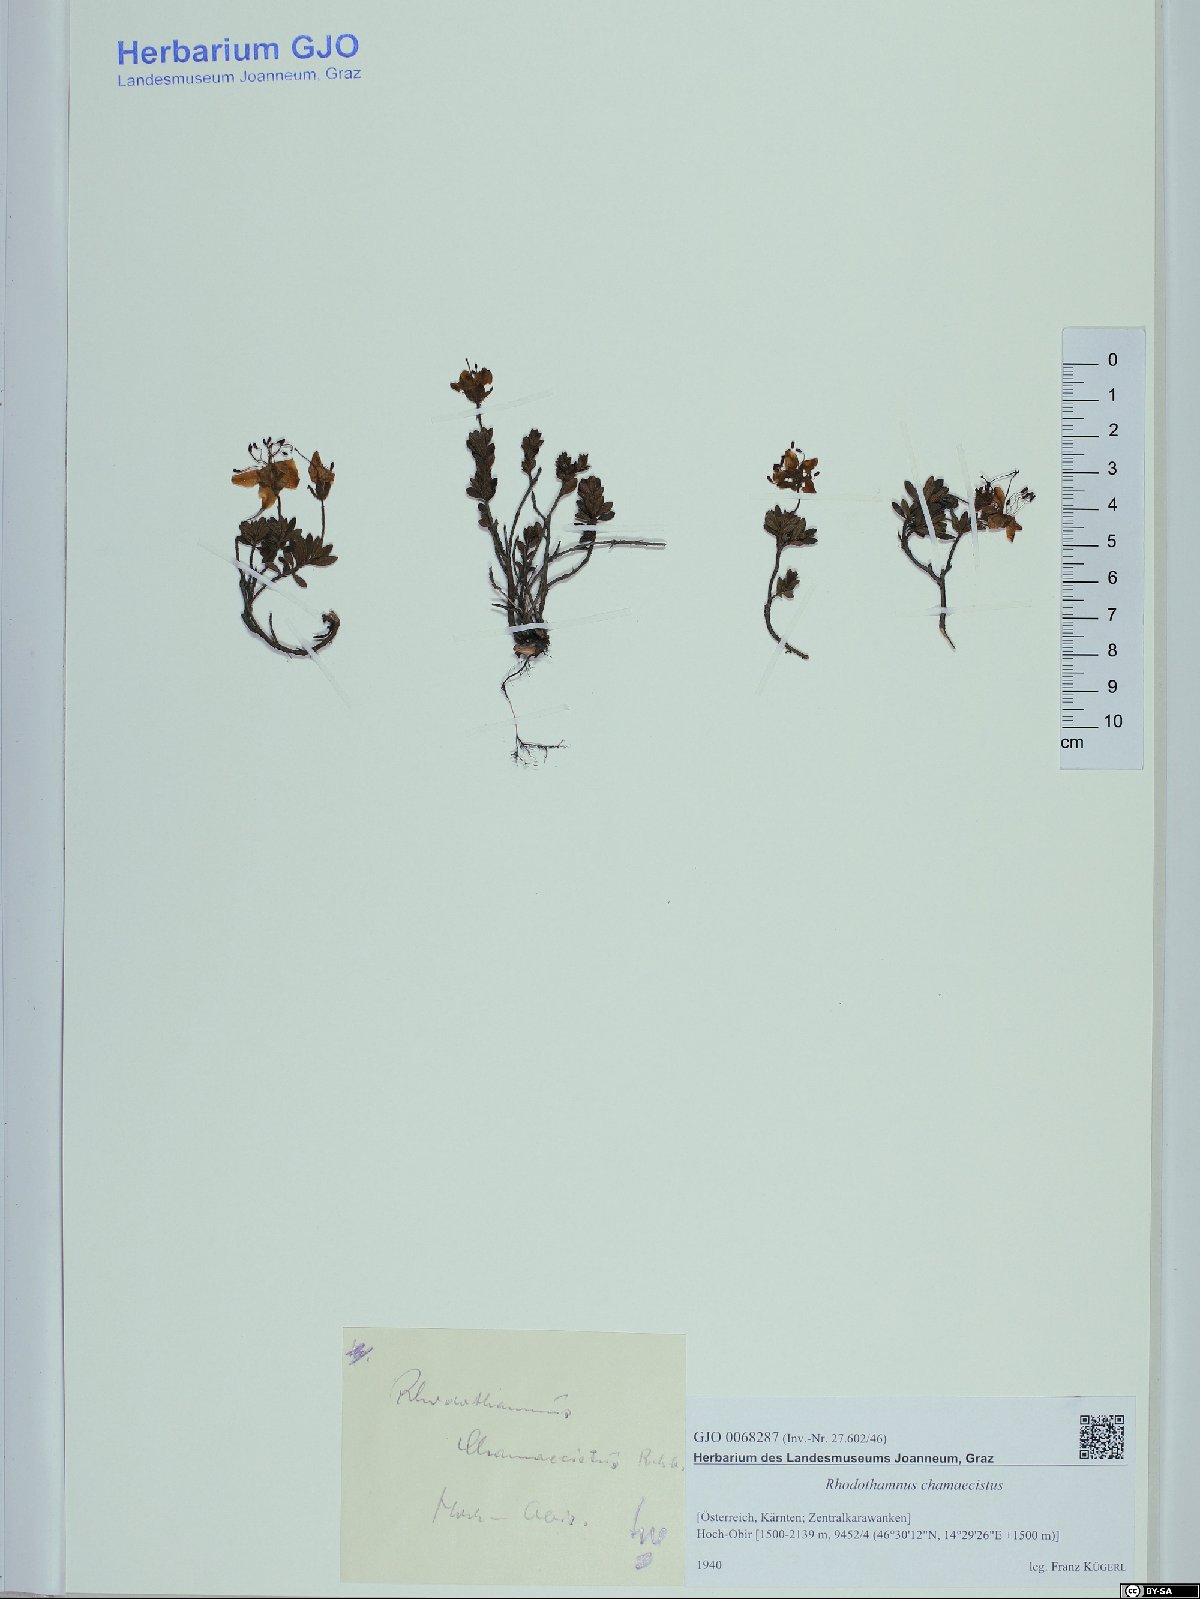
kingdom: Plantae
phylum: Tracheophyta
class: Magnoliopsida
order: Ericales
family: Ericaceae
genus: Rhodothamnus
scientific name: Rhodothamnus chamaecistus
